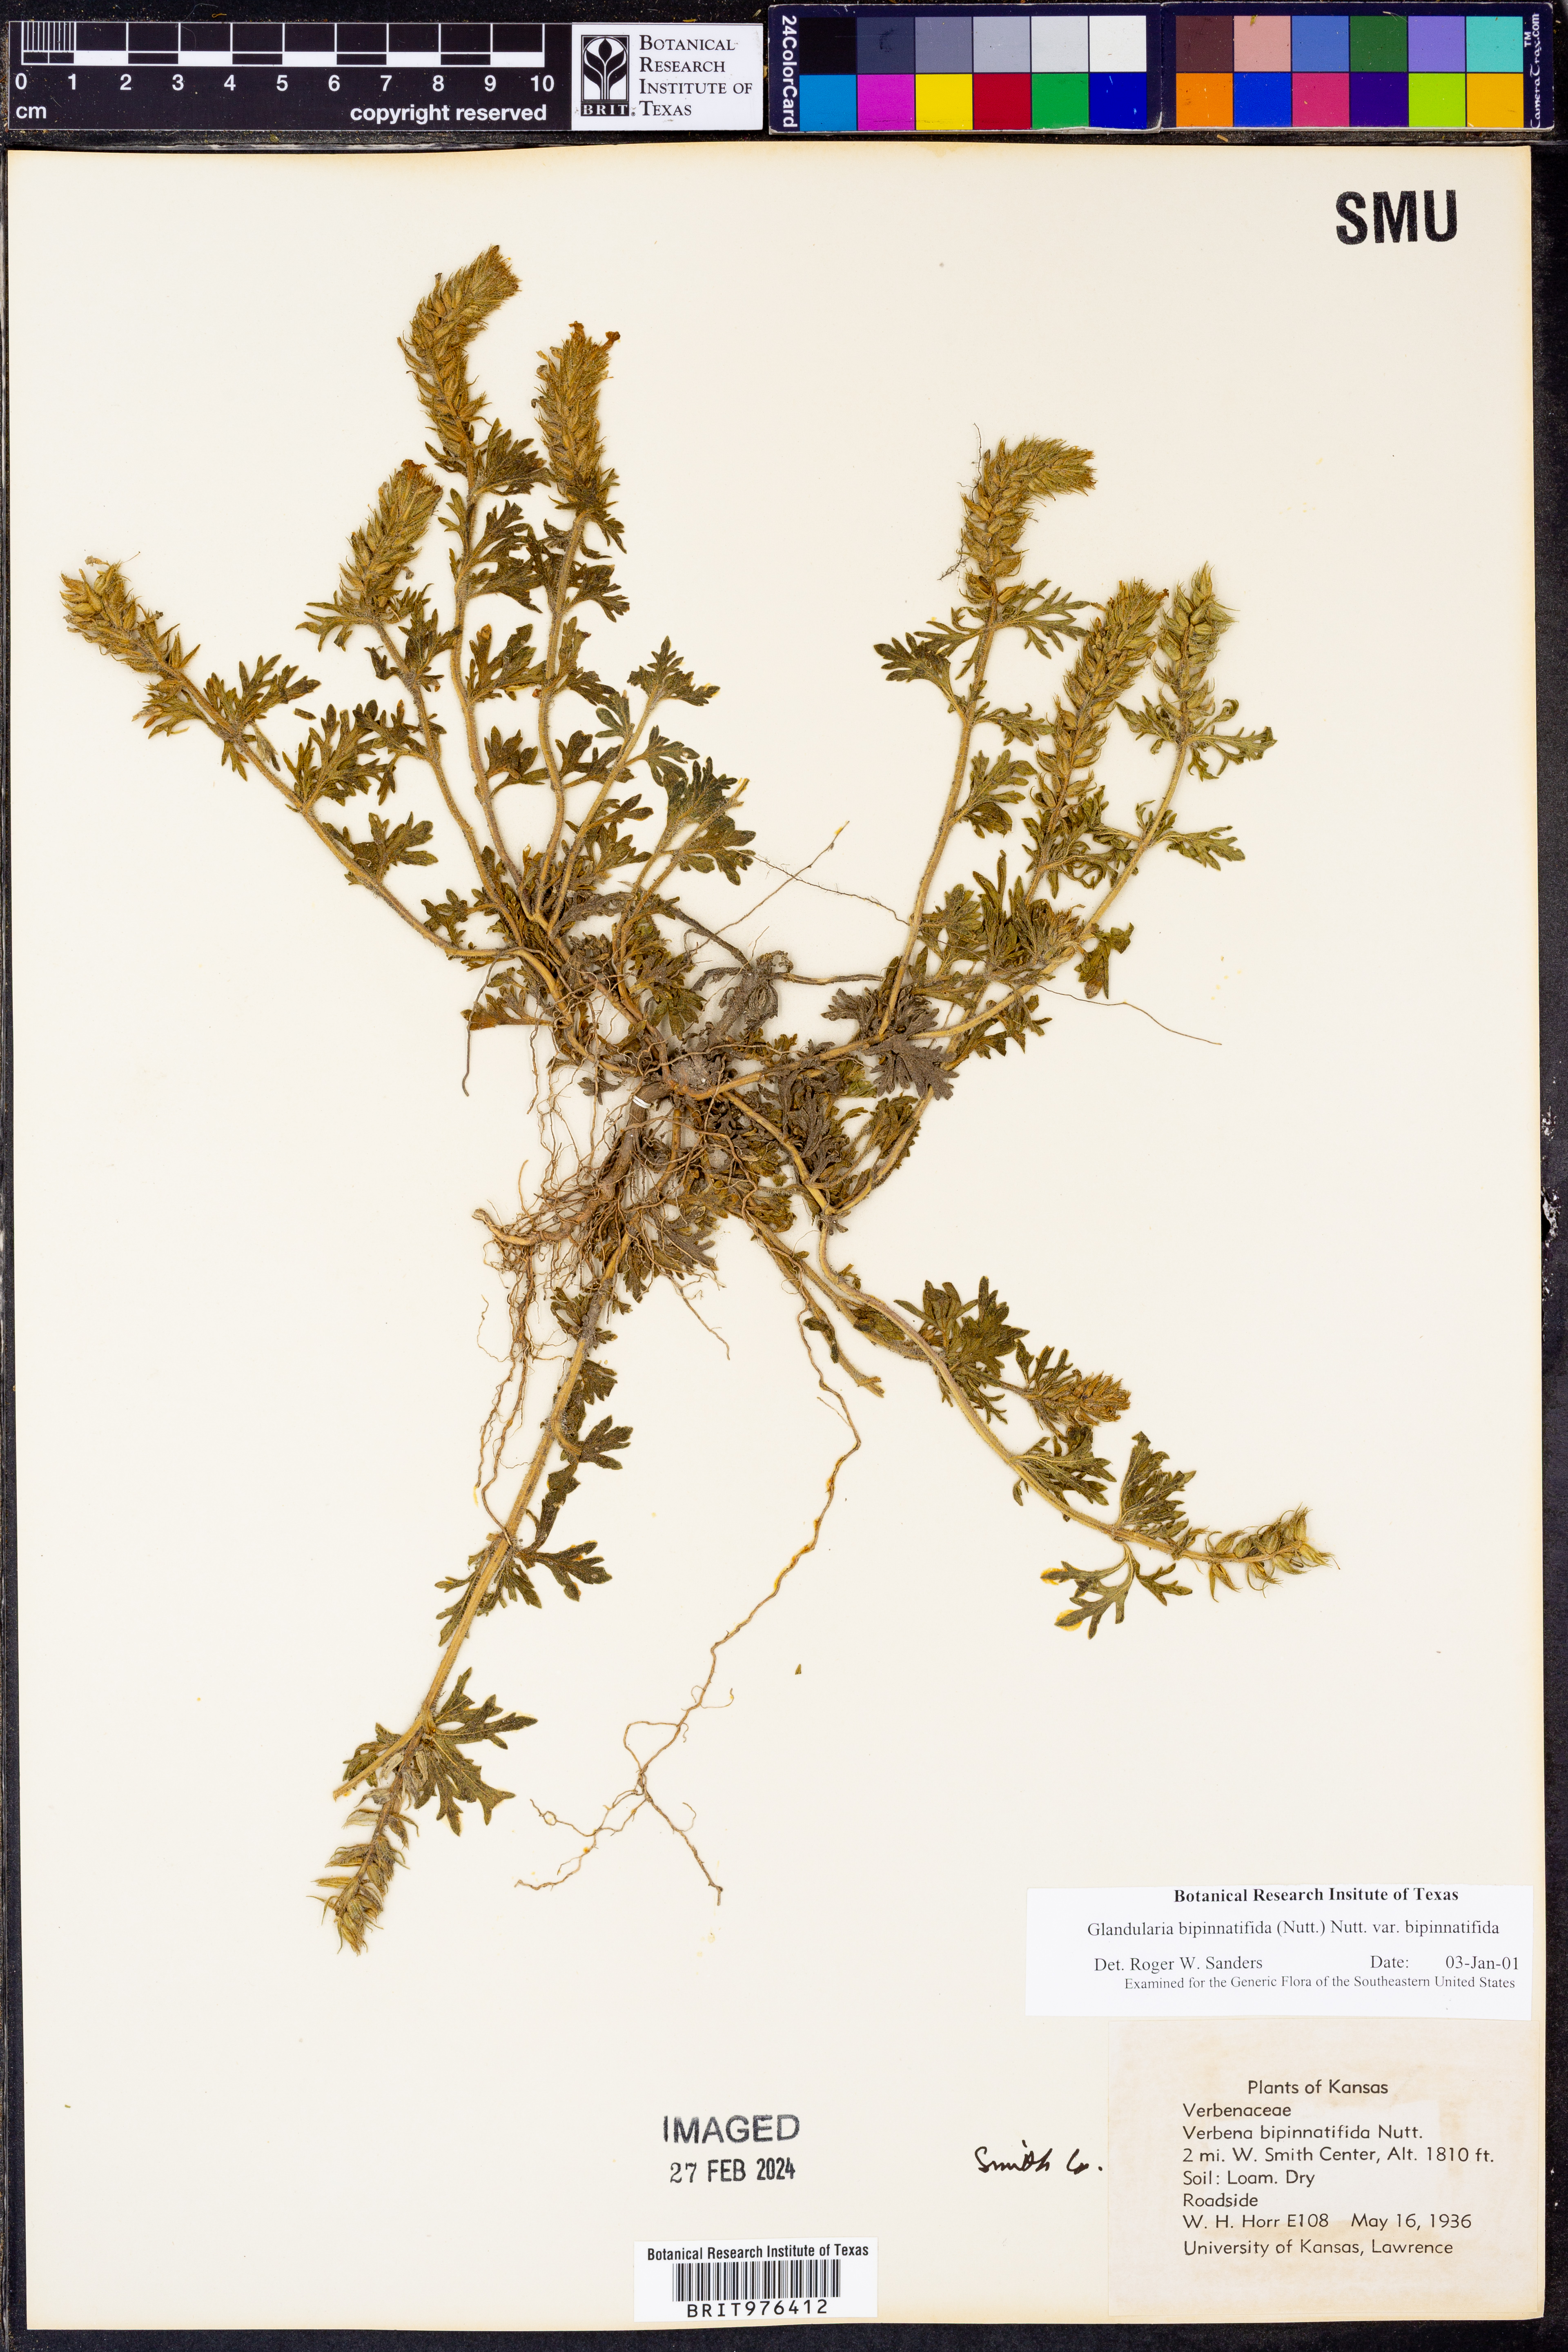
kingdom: Plantae
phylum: Tracheophyta
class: Magnoliopsida
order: Lamiales
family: Verbenaceae
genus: Verbena
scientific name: Verbena bipinnatifida
